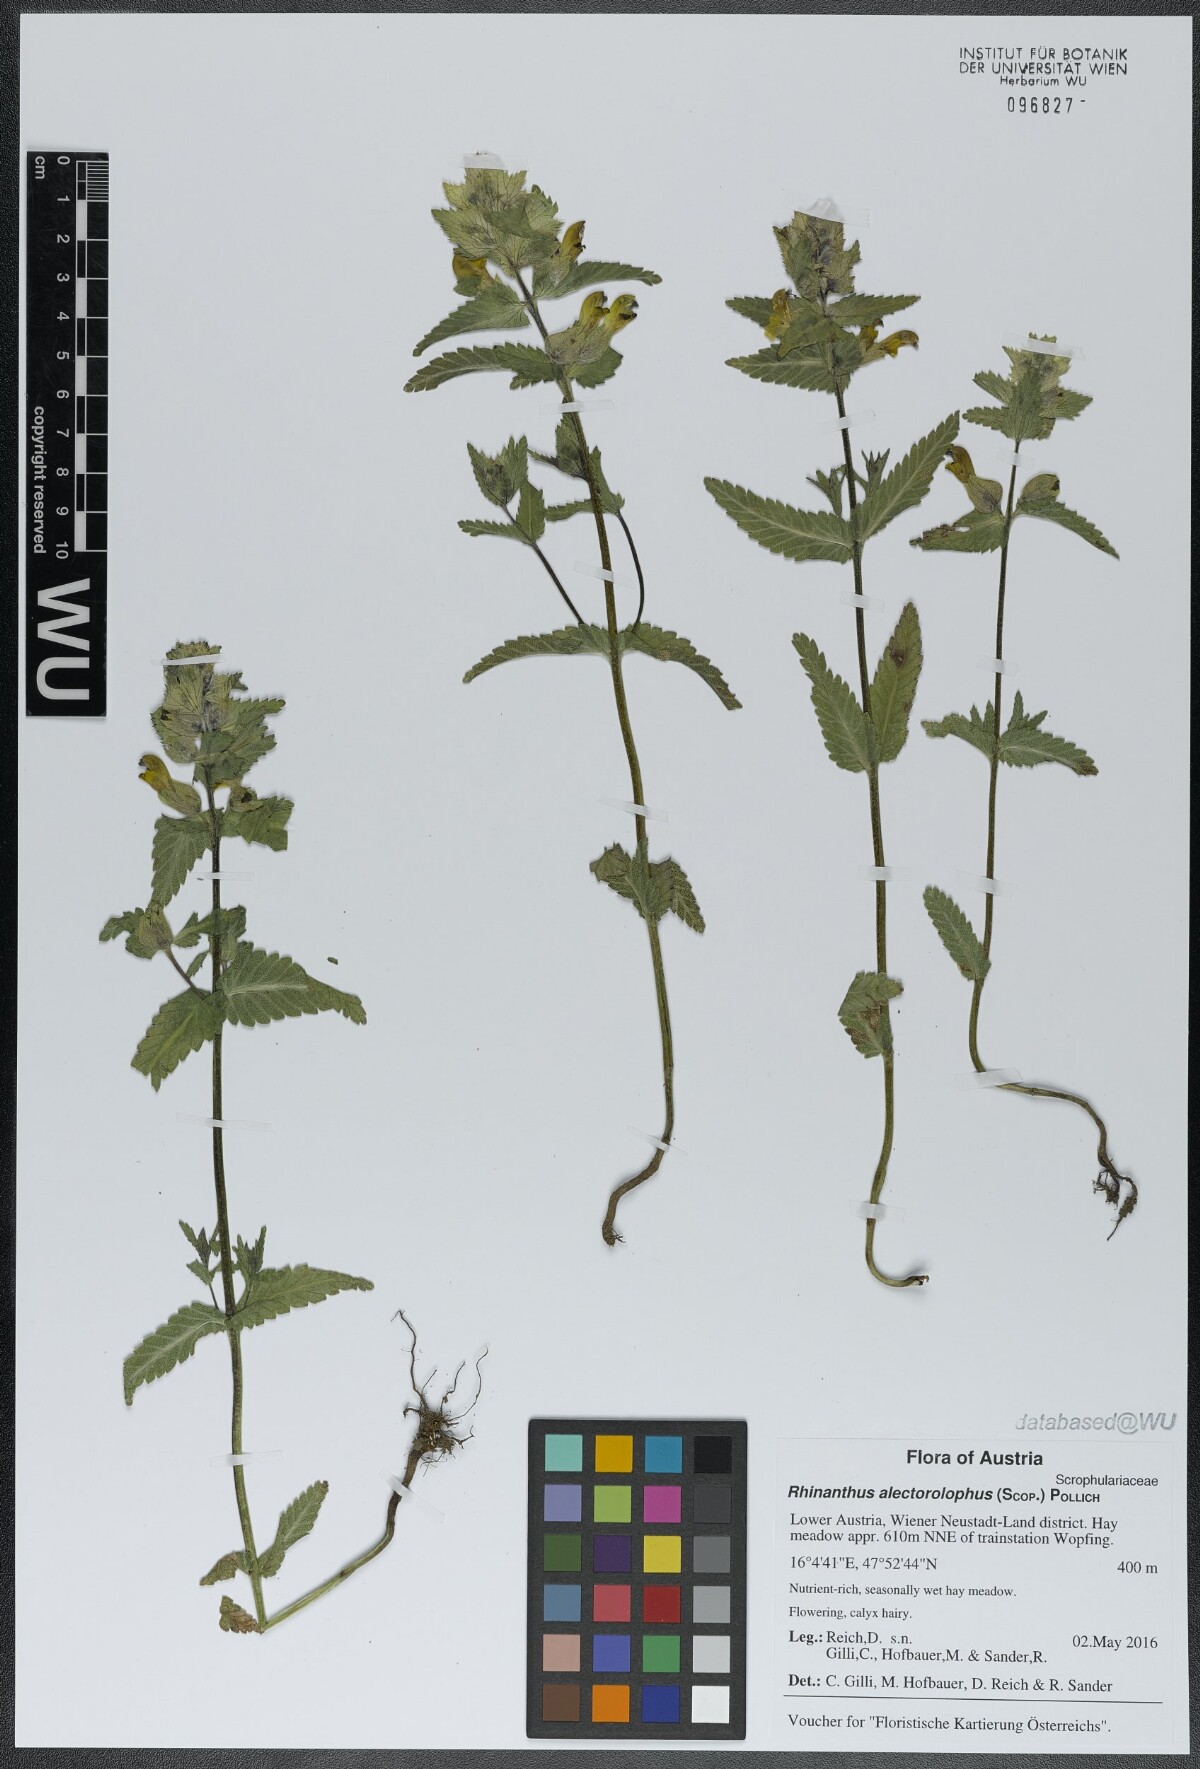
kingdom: Plantae
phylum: Tracheophyta
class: Magnoliopsida
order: Lamiales
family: Orobanchaceae
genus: Rhinanthus
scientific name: Rhinanthus alectorolophus
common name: Greater yellow-rattle
